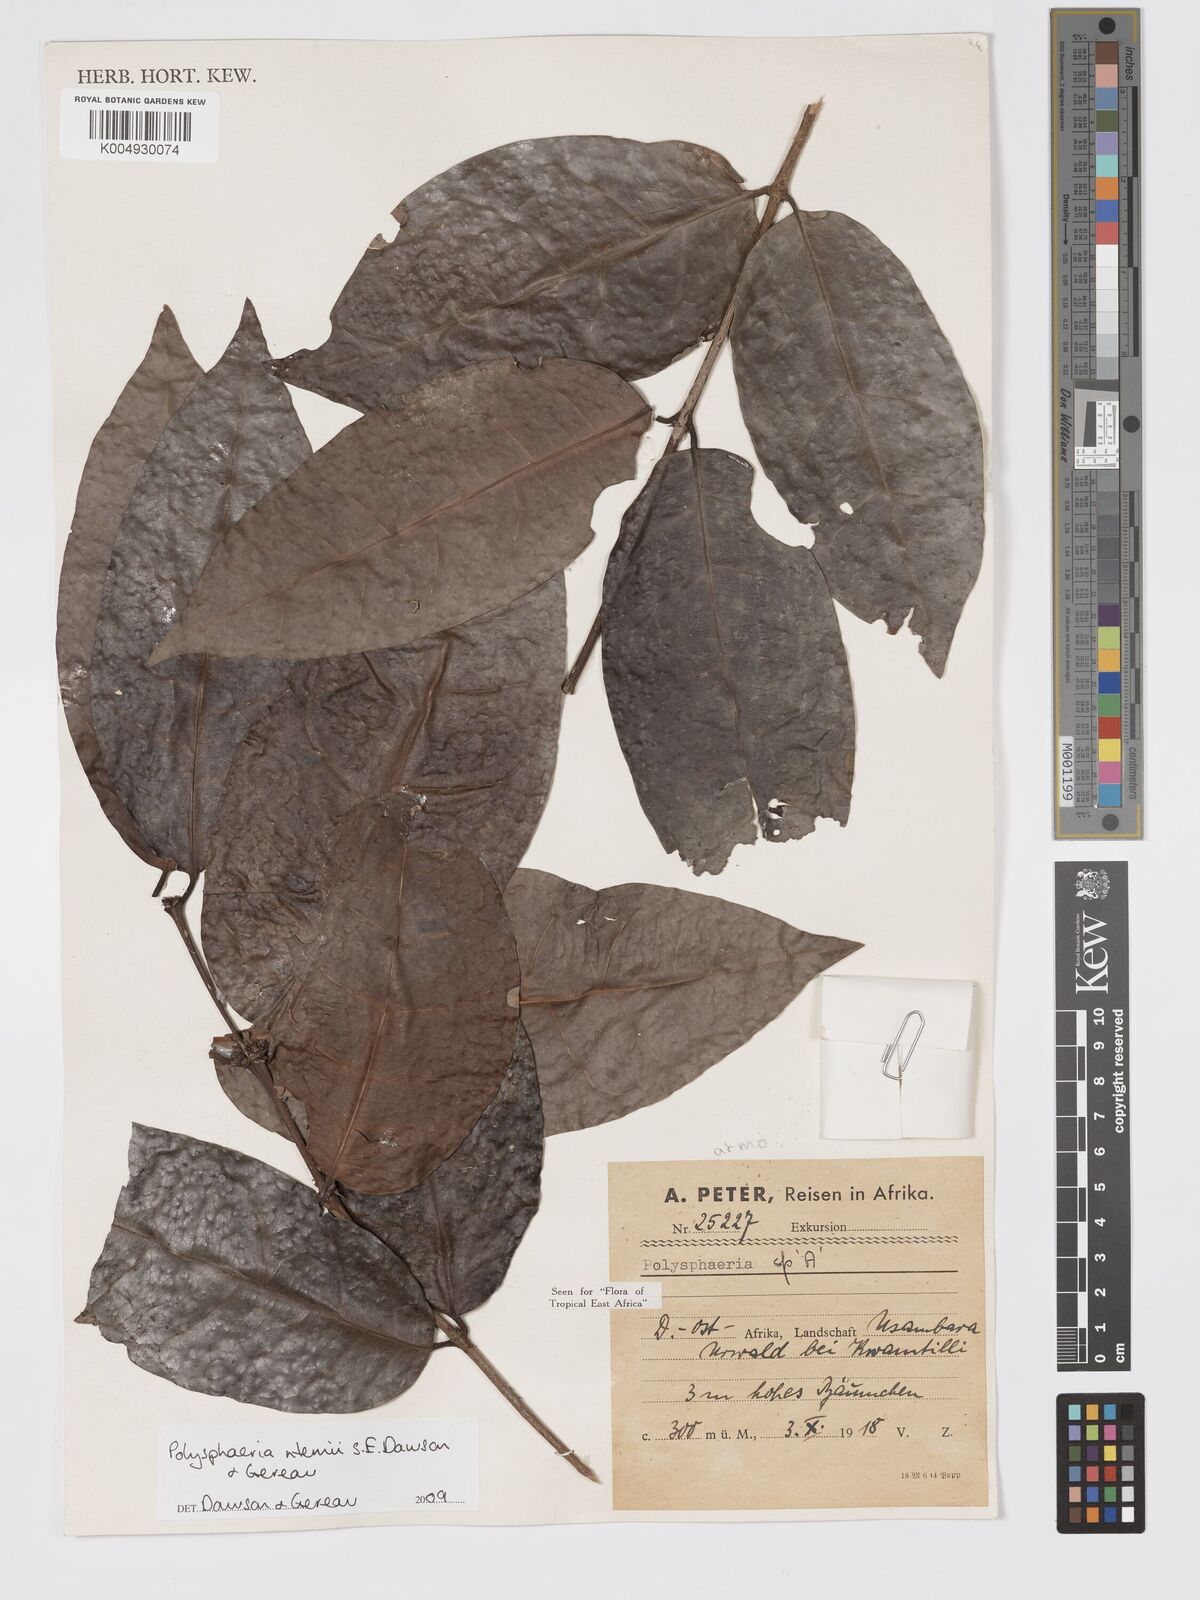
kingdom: Plantae
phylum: Tracheophyta
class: Magnoliopsida
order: Gentianales
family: Rubiaceae
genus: Polysphaeria
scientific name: Polysphaeria ntemii
